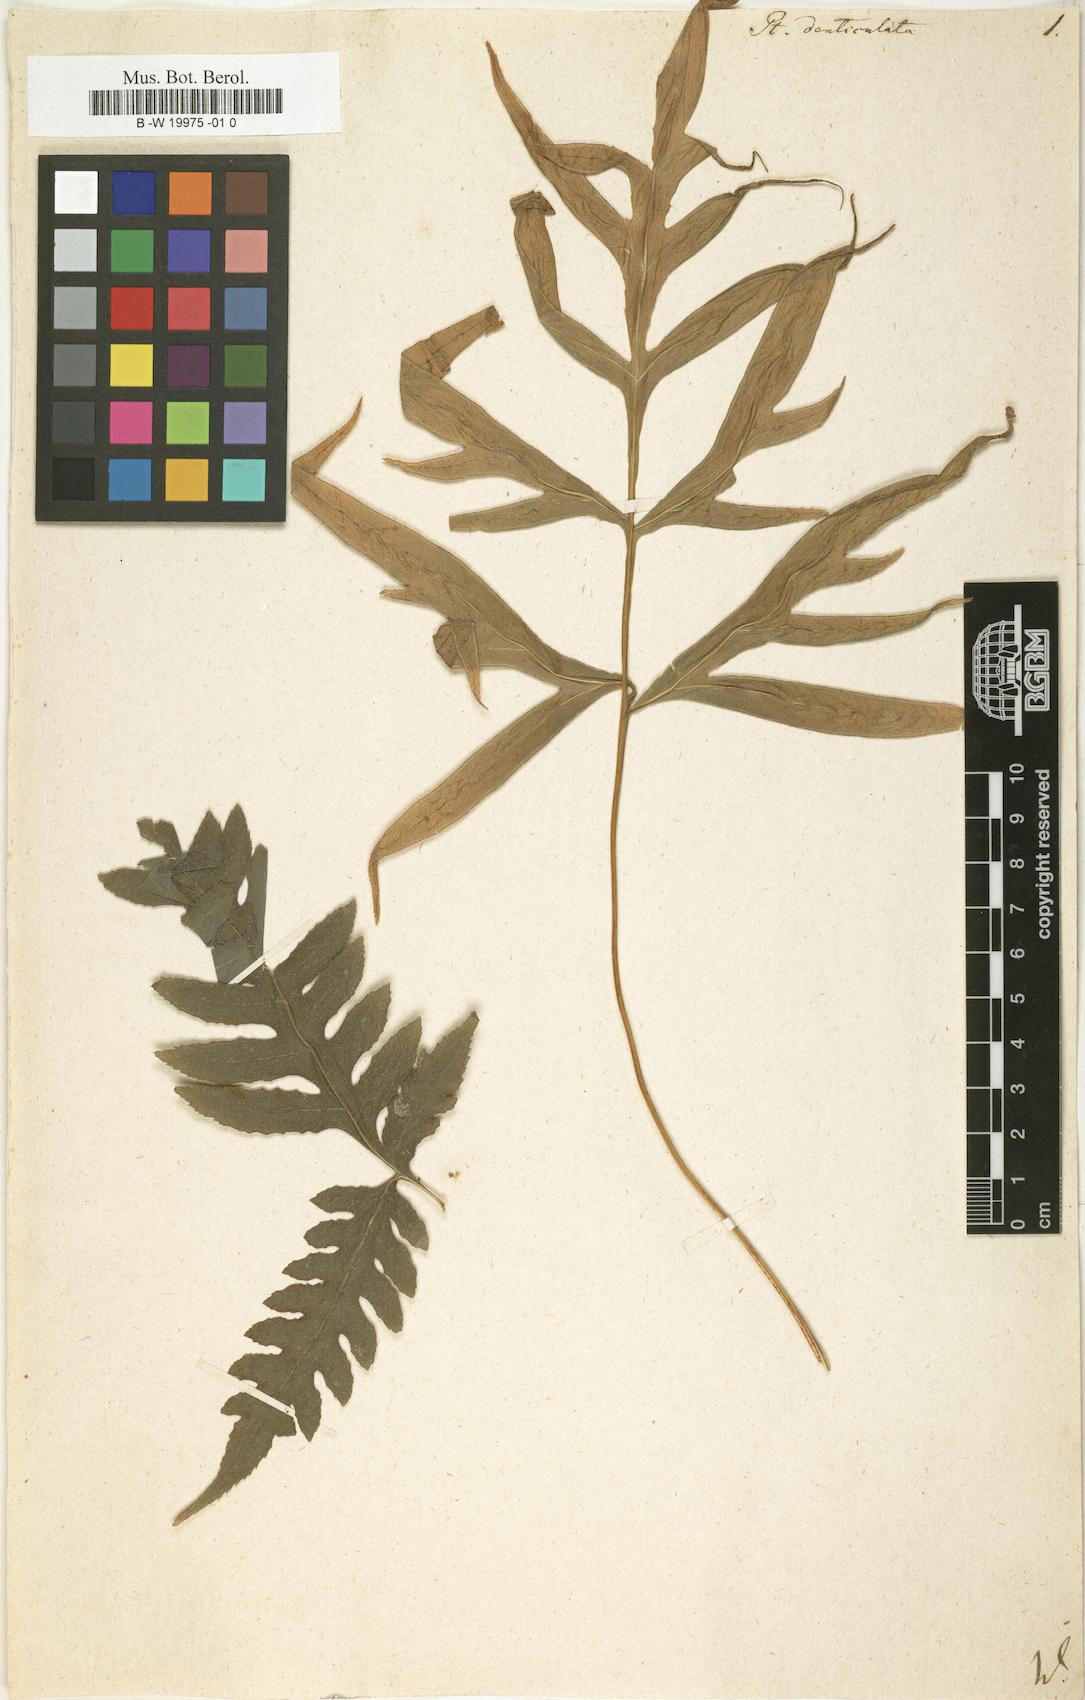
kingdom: Plantae
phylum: Tracheophyta
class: Polypodiopsida
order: Polypodiales
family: Pteridaceae
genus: Pteris
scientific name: Pteris denticulata
